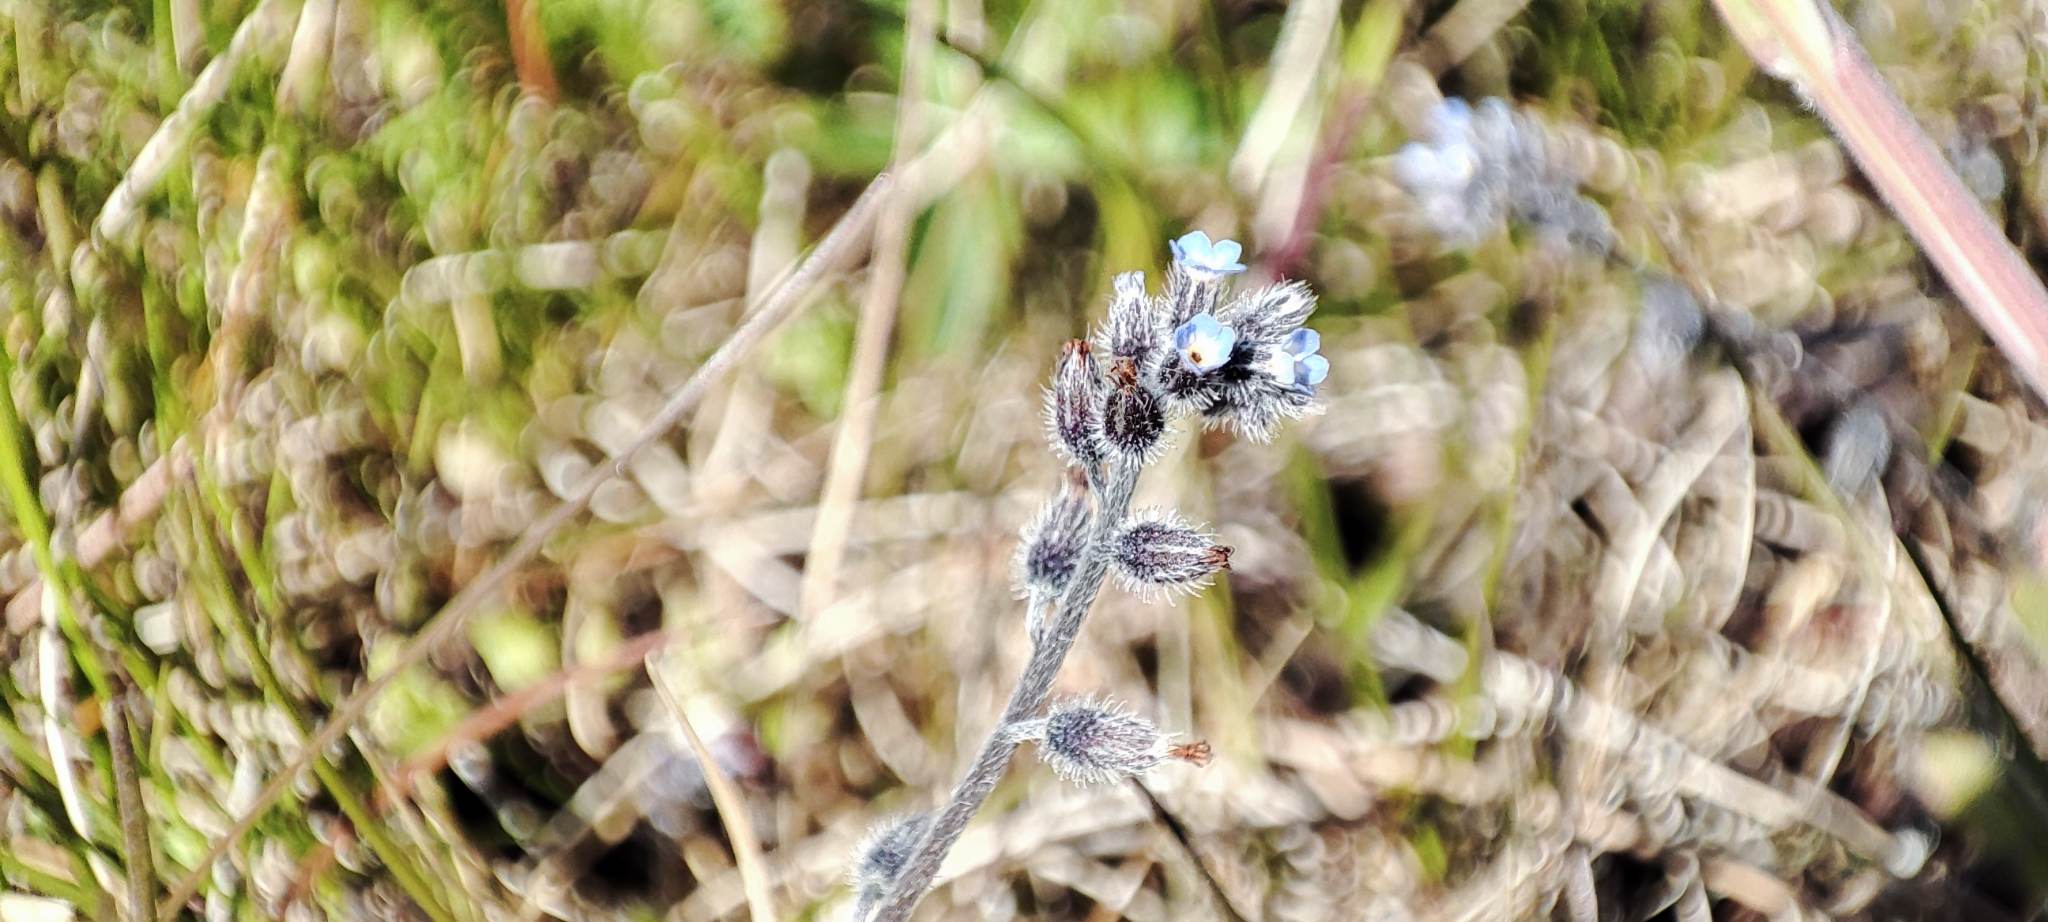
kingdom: Plantae
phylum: Tracheophyta
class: Magnoliopsida
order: Boraginales
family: Boraginaceae
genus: Myosotis
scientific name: Myosotis ramosissima
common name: Bakke-forglemmigej
